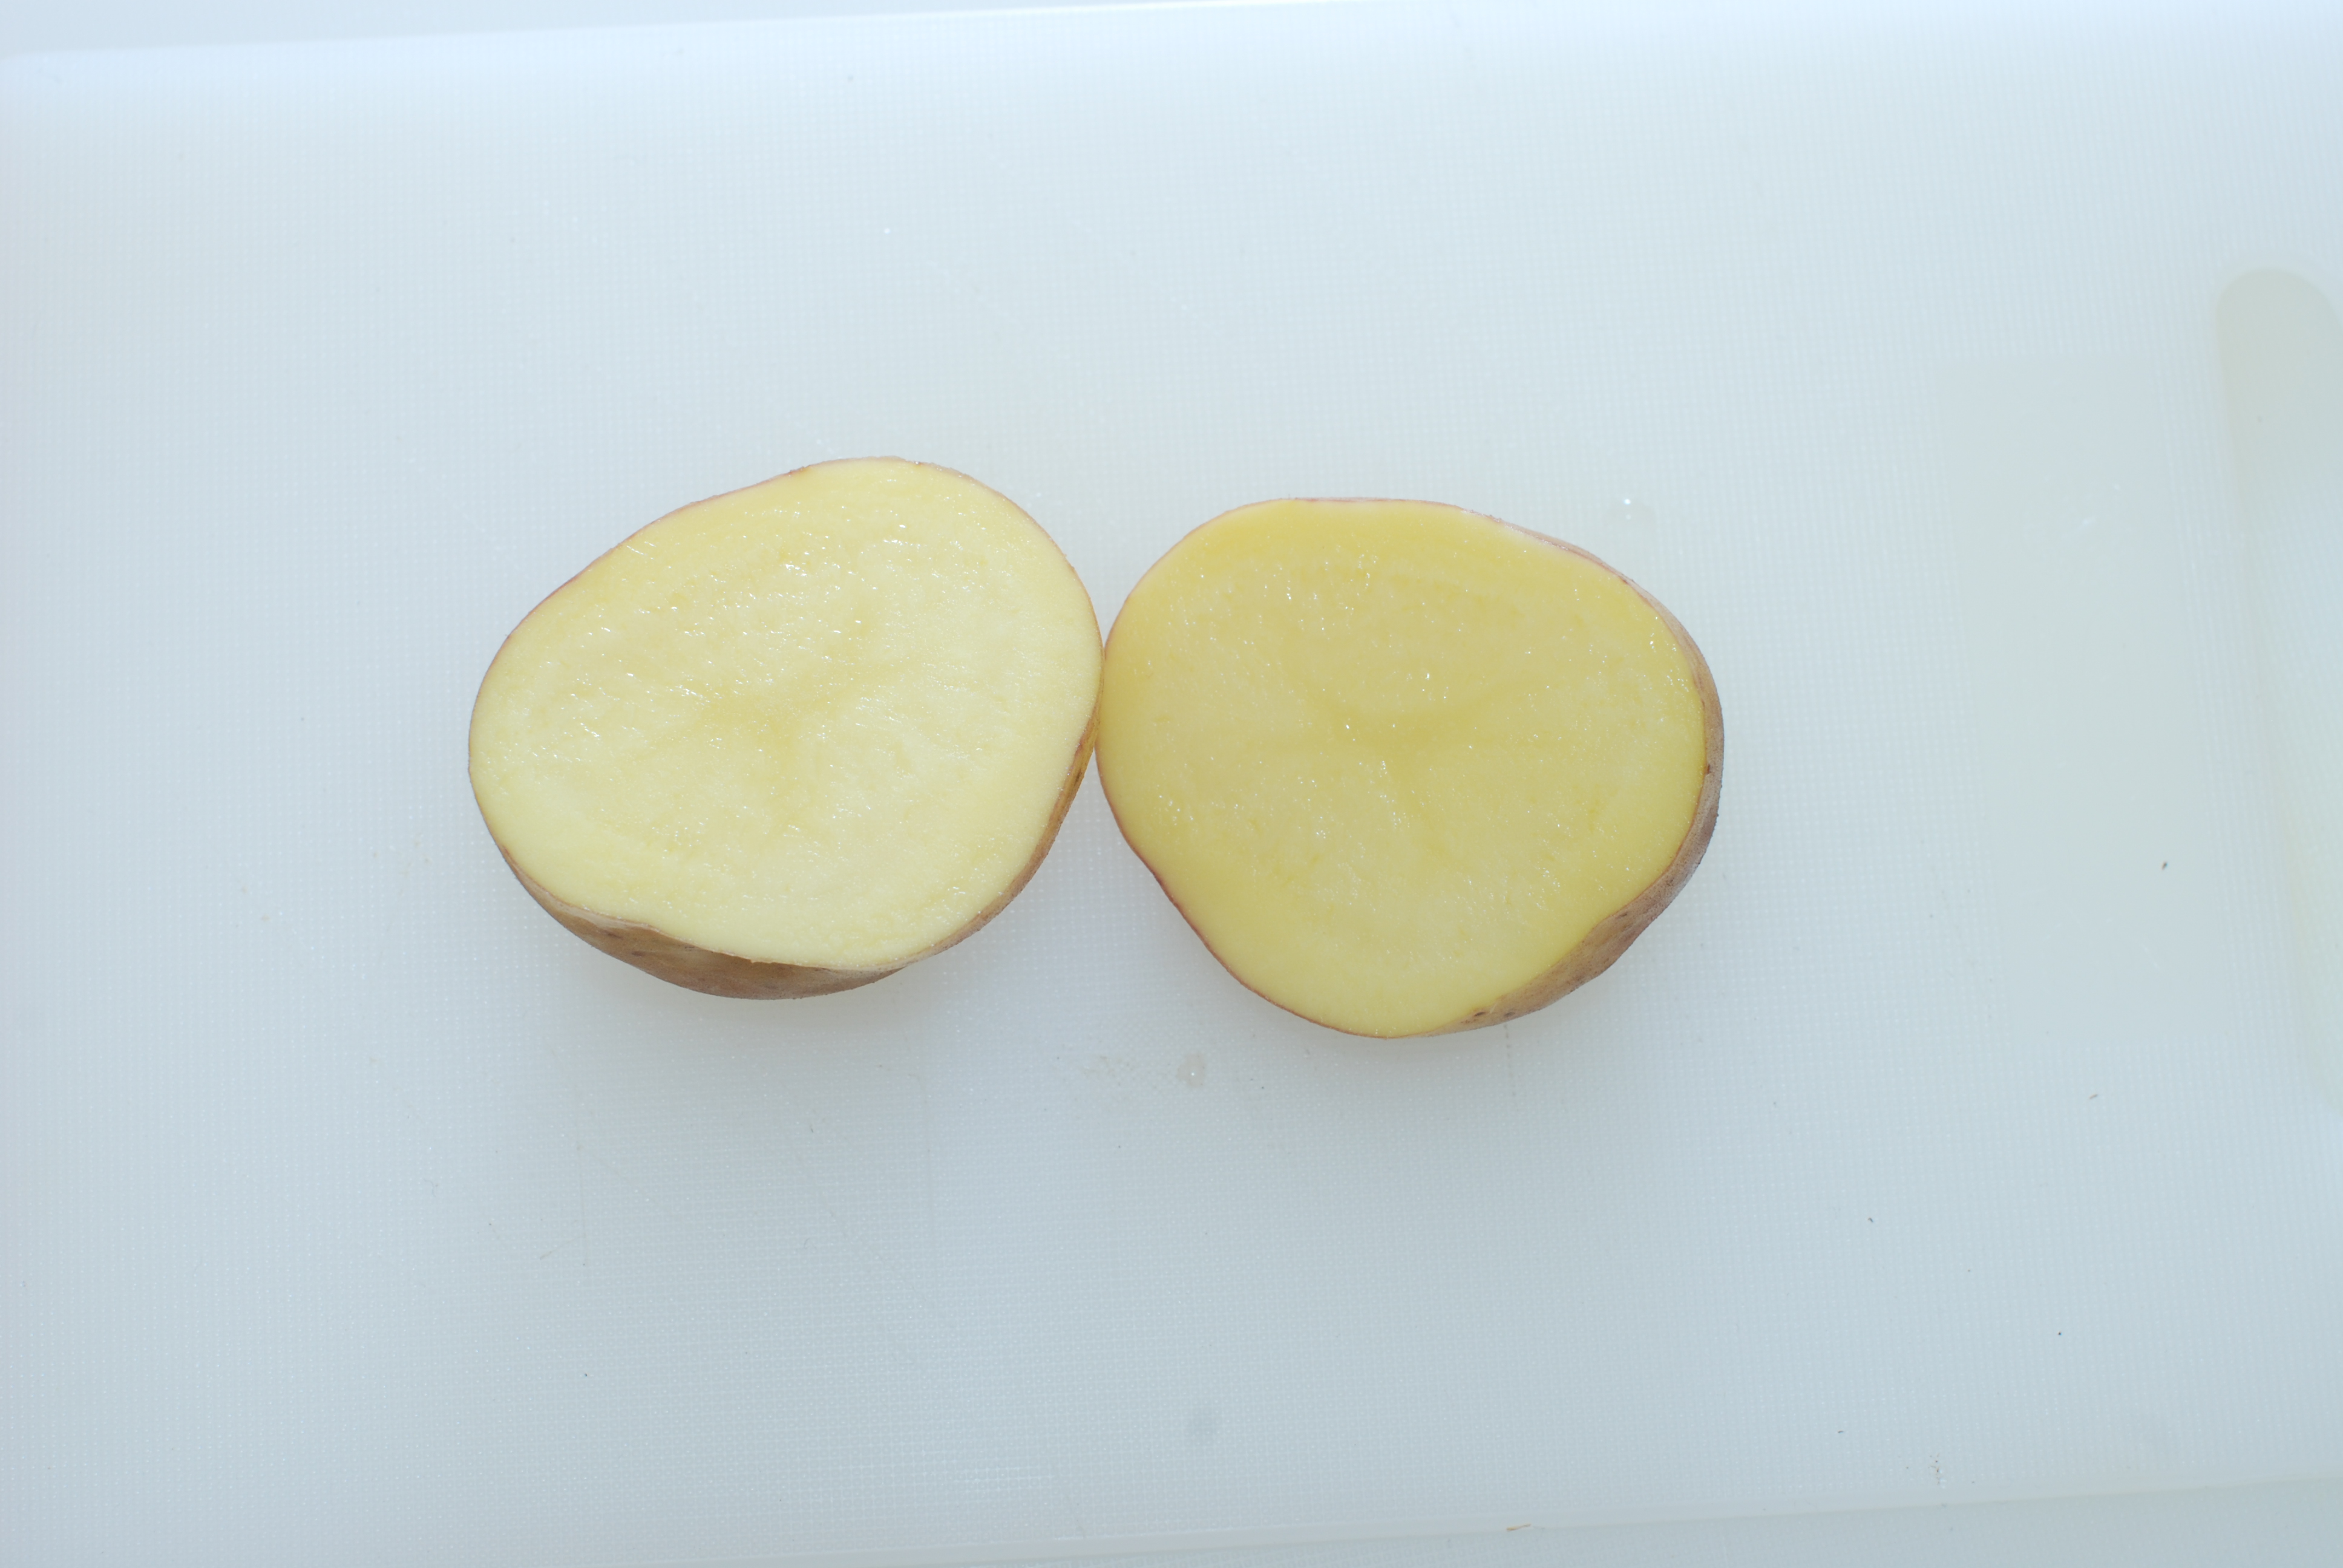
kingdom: Plantae
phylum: Tracheophyta
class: Magnoliopsida
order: Solanales
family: Solanaceae
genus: Solanum
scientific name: Solanum tuberosum
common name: Potato
